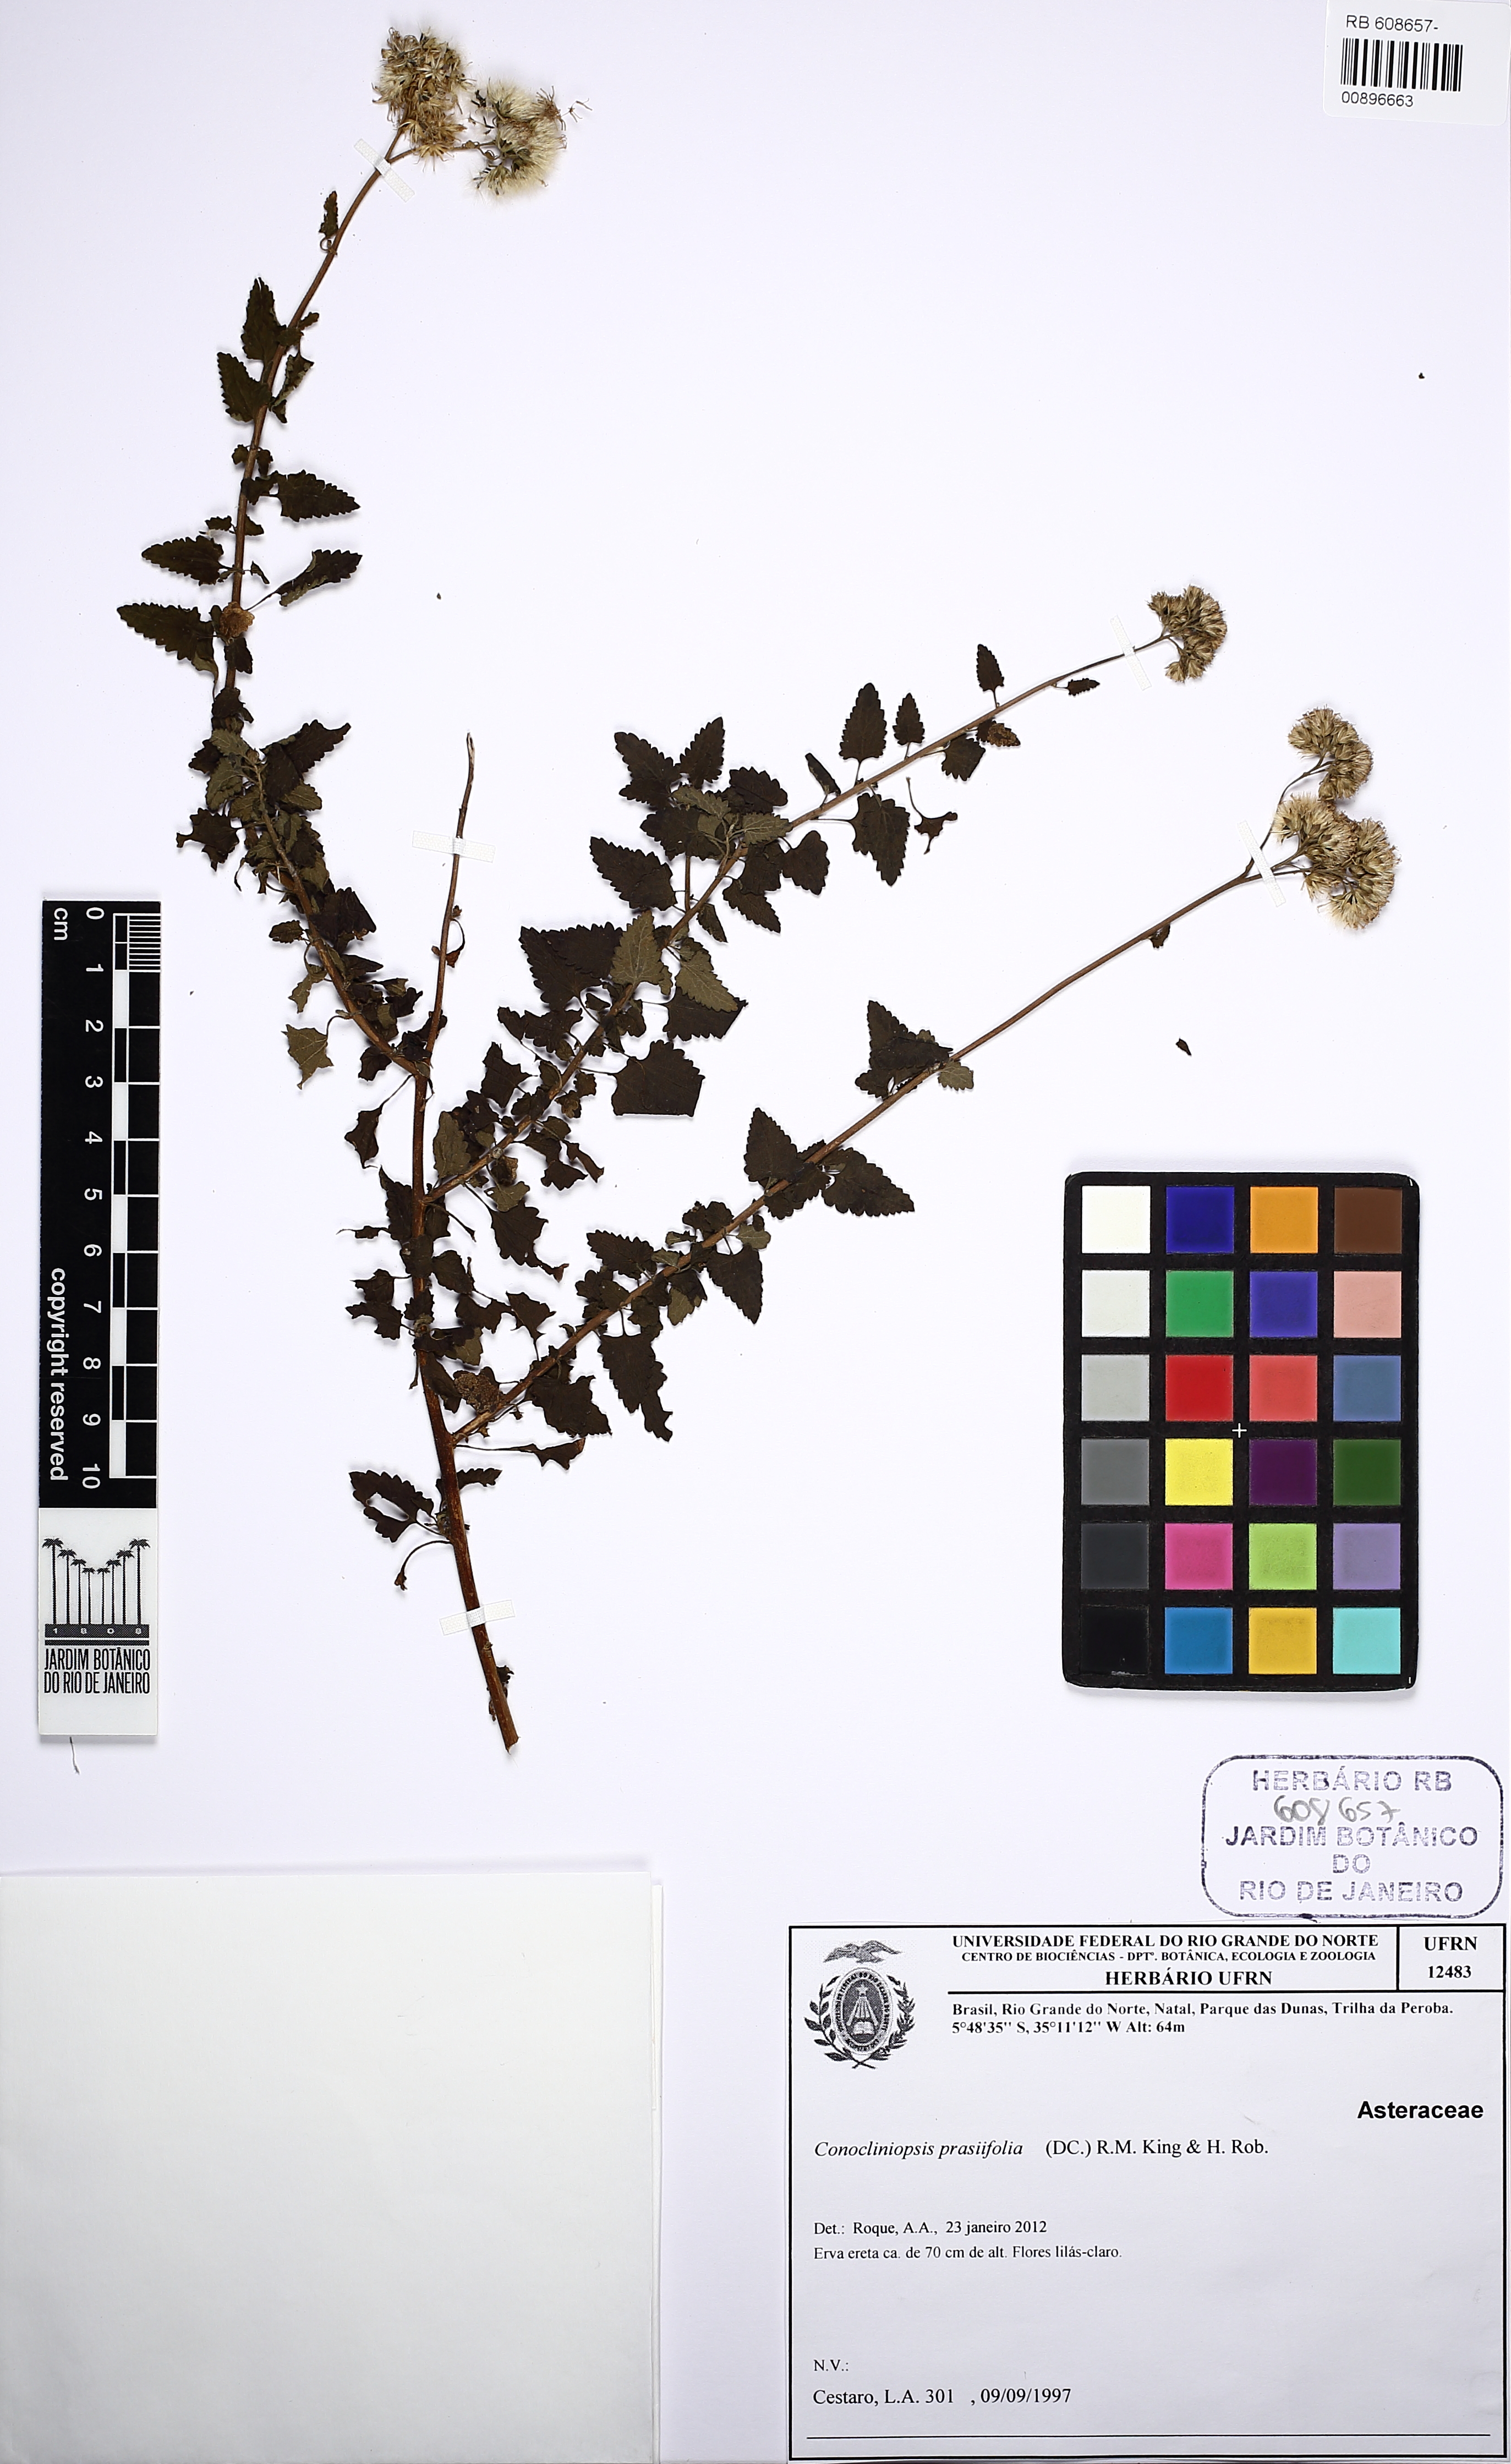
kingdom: Plantae
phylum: Tracheophyta
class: Magnoliopsida
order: Asterales
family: Asteraceae
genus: Conocliniopsis
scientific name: Conocliniopsis grossedentata
